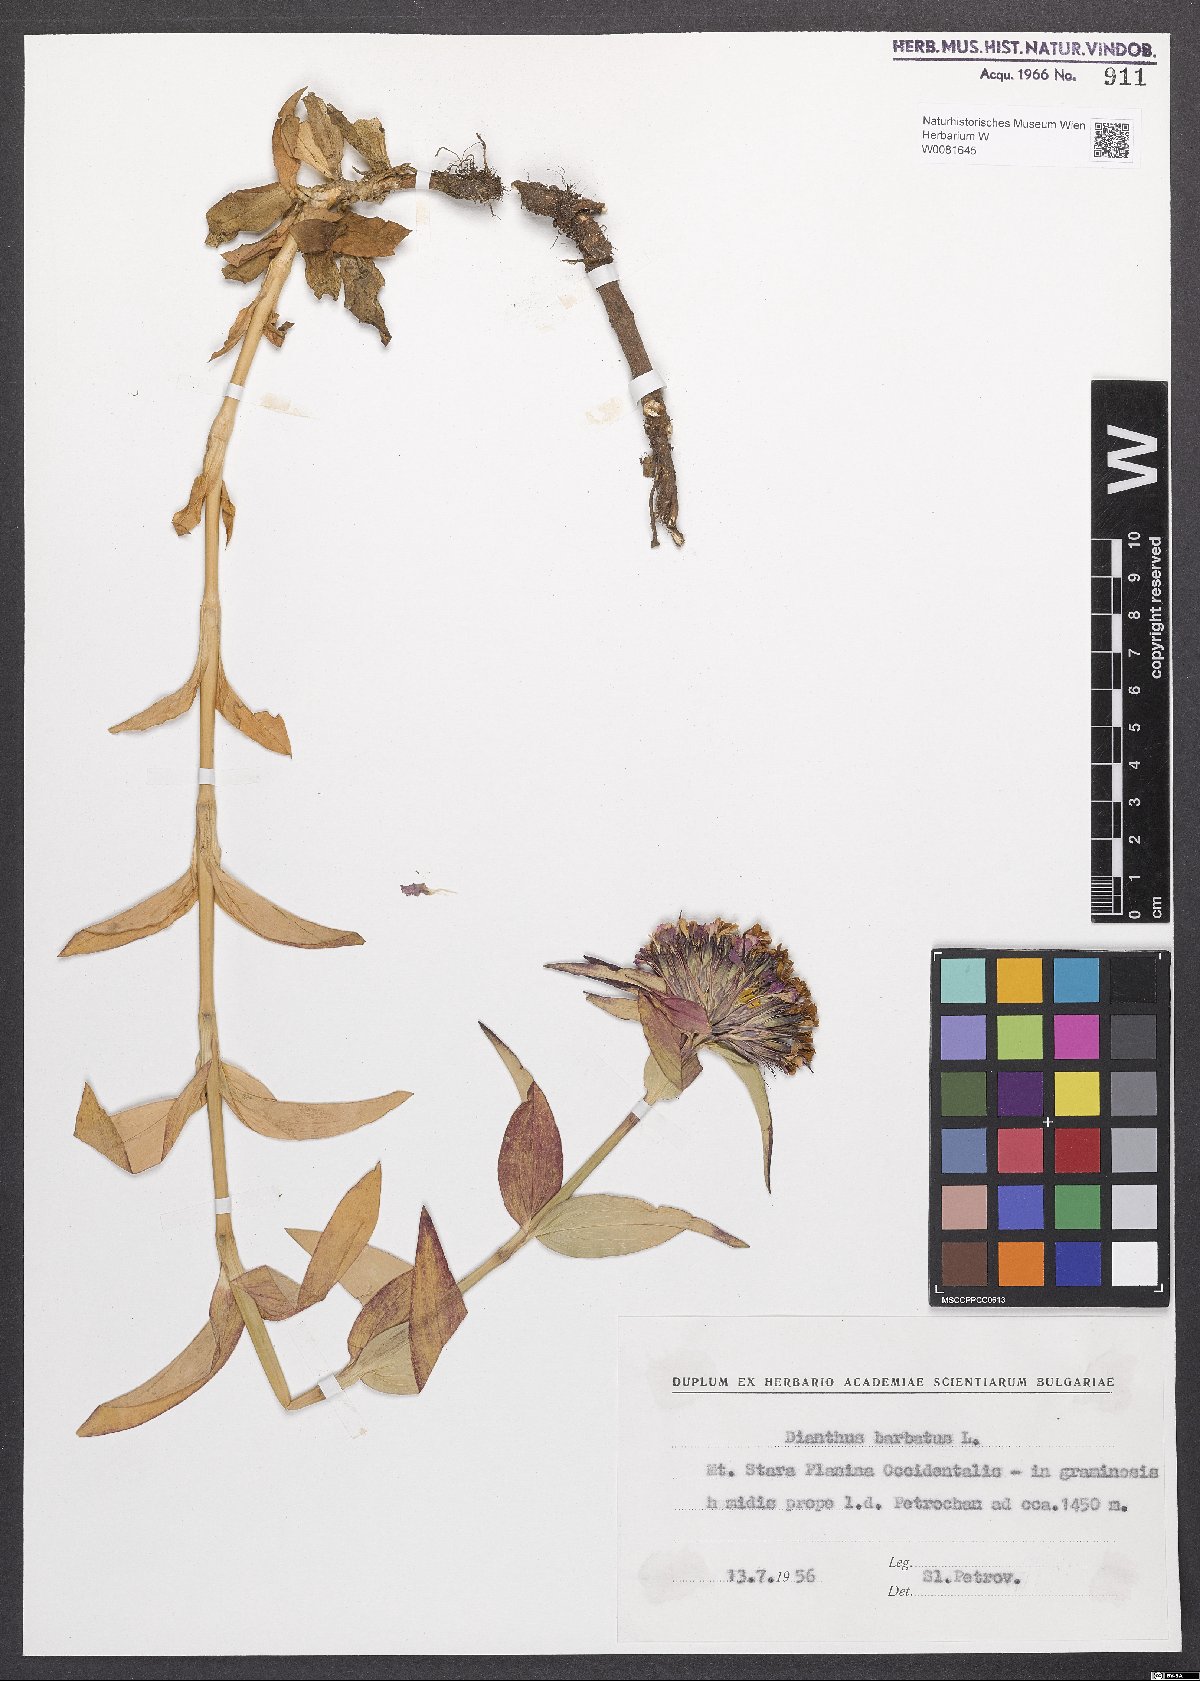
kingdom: Plantae
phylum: Tracheophyta
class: Magnoliopsida
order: Caryophyllales
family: Caryophyllaceae
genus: Dianthus
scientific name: Dianthus barbatus
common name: Sweet-william
